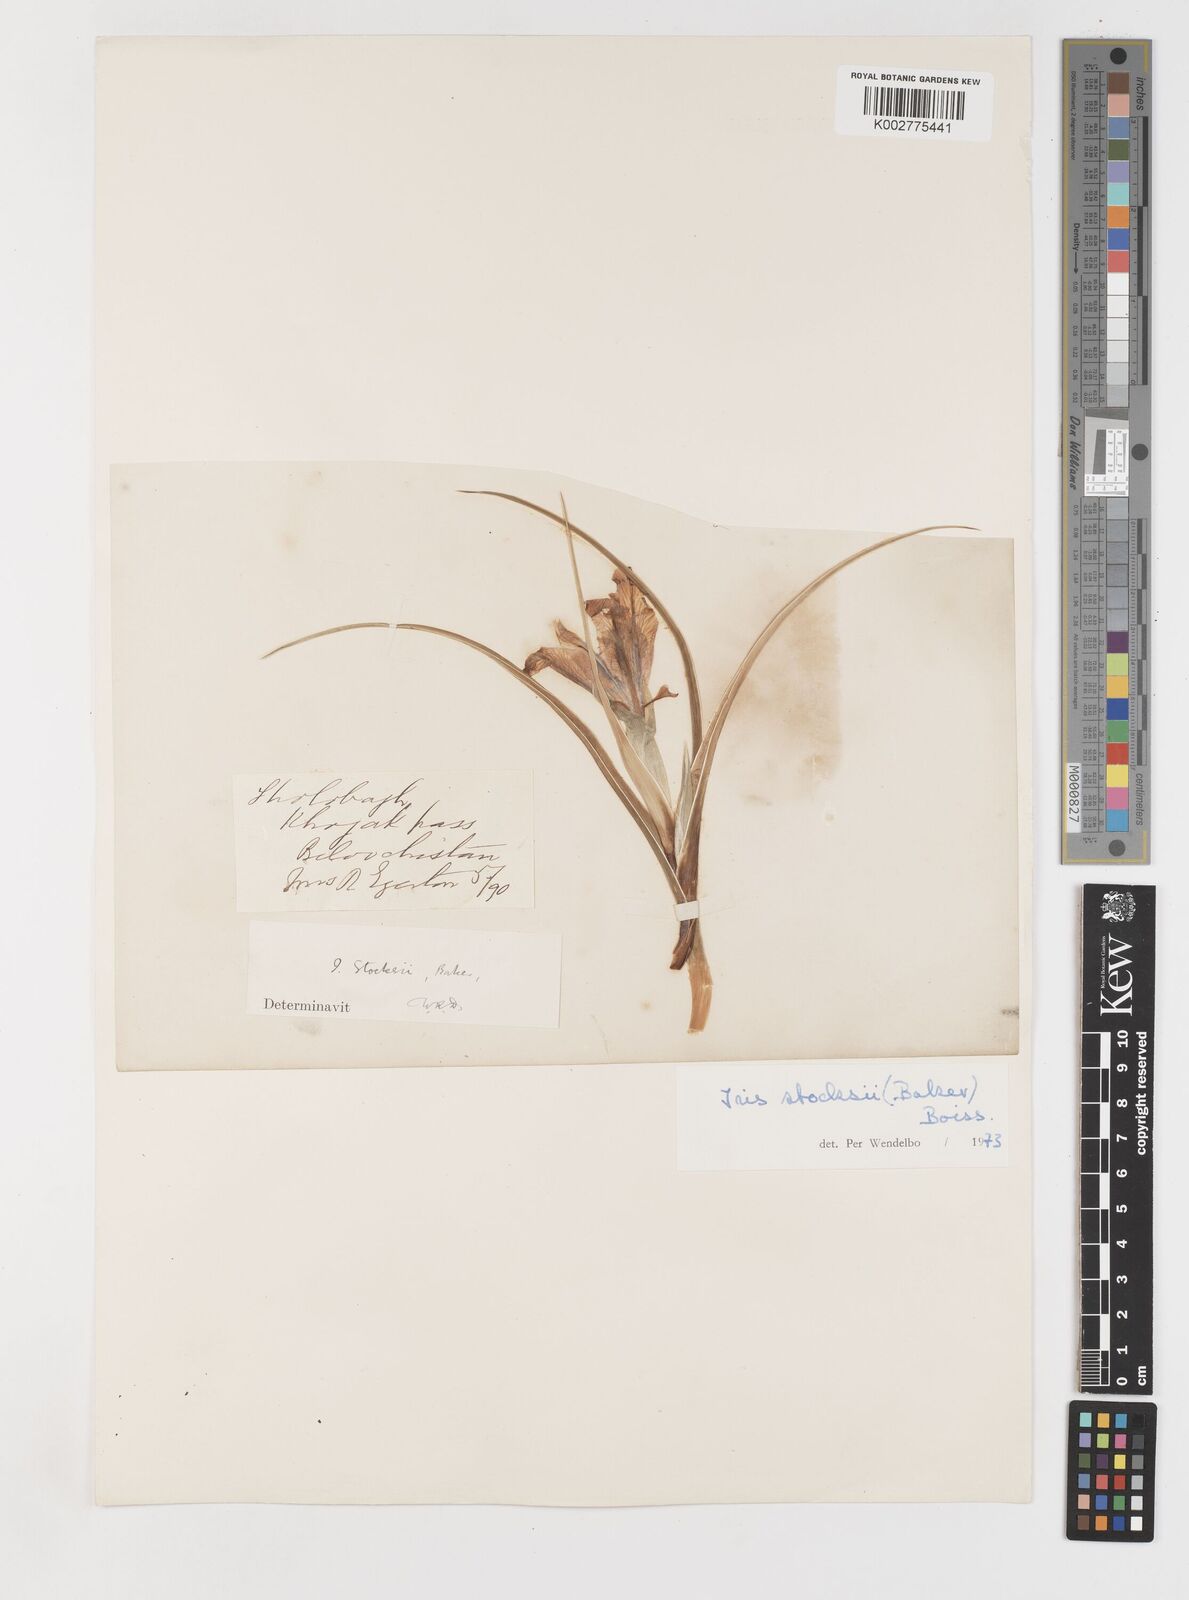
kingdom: Plantae
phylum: Tracheophyta
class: Liliopsida
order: Asparagales
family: Iridaceae
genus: Iris
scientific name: Iris stocksii
